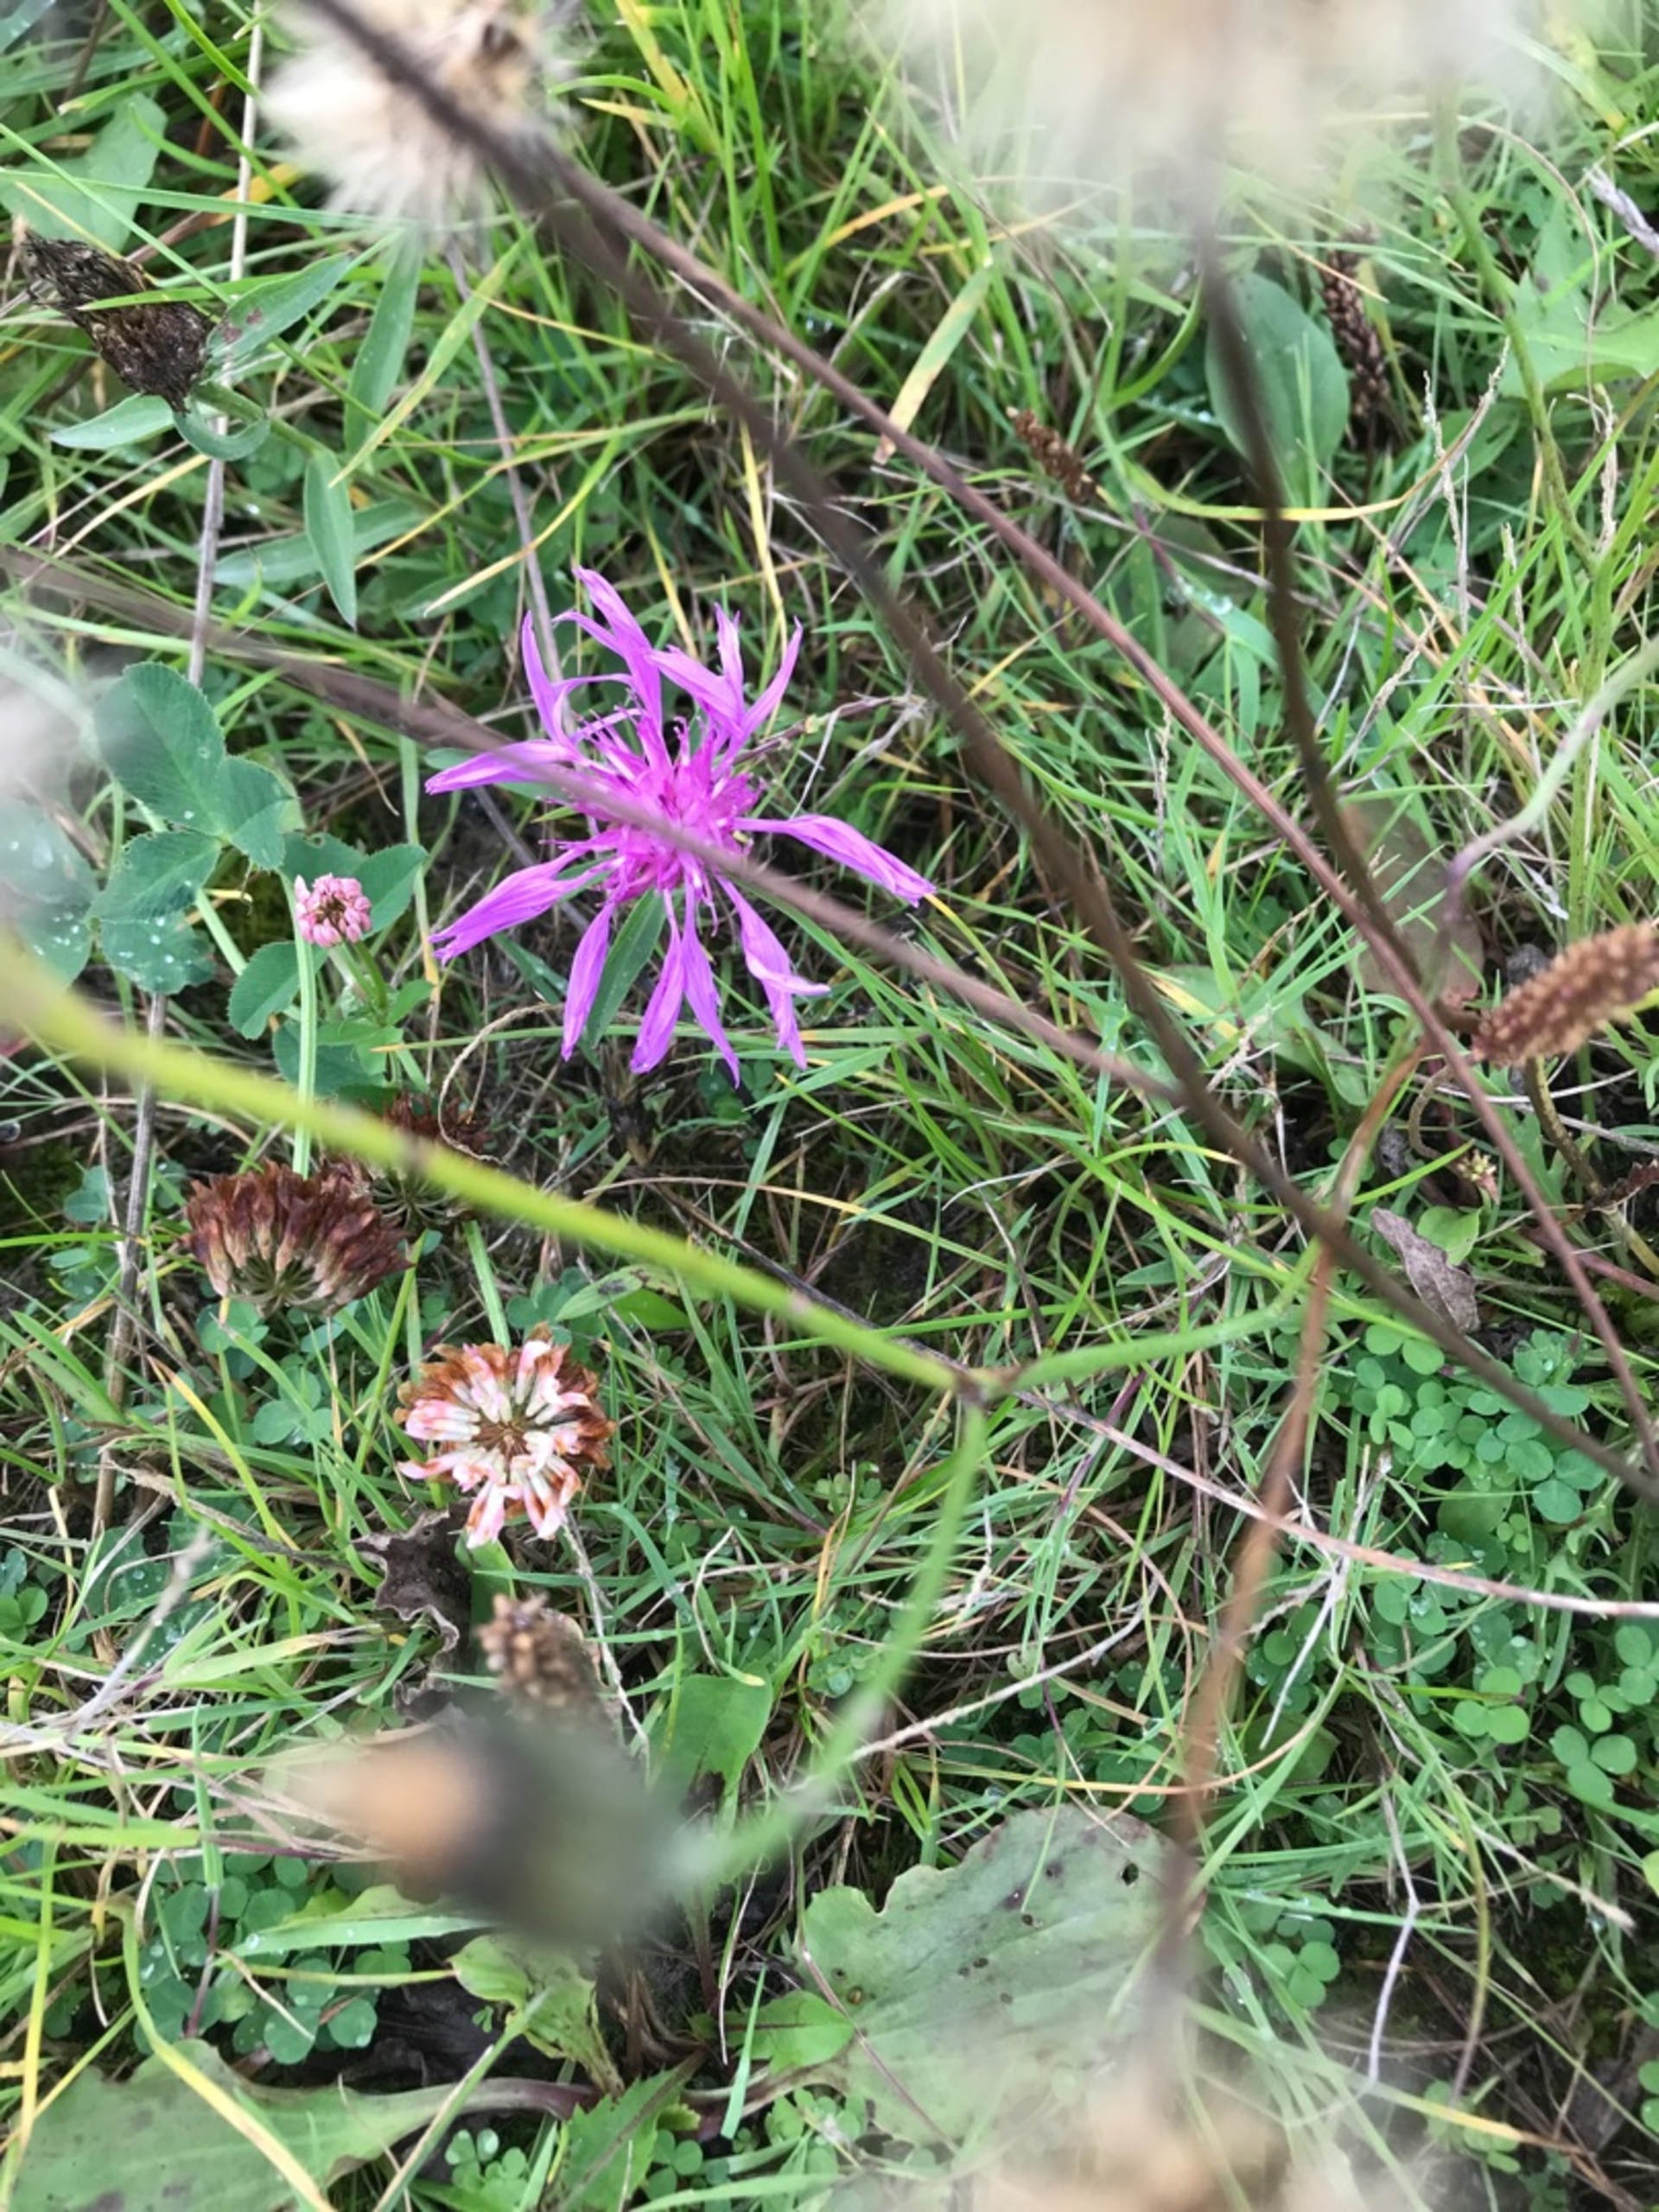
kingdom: Plantae
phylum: Tracheophyta
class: Magnoliopsida
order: Asterales
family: Asteraceae
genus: Centaurea
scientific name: Centaurea
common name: Knopurtslægten
